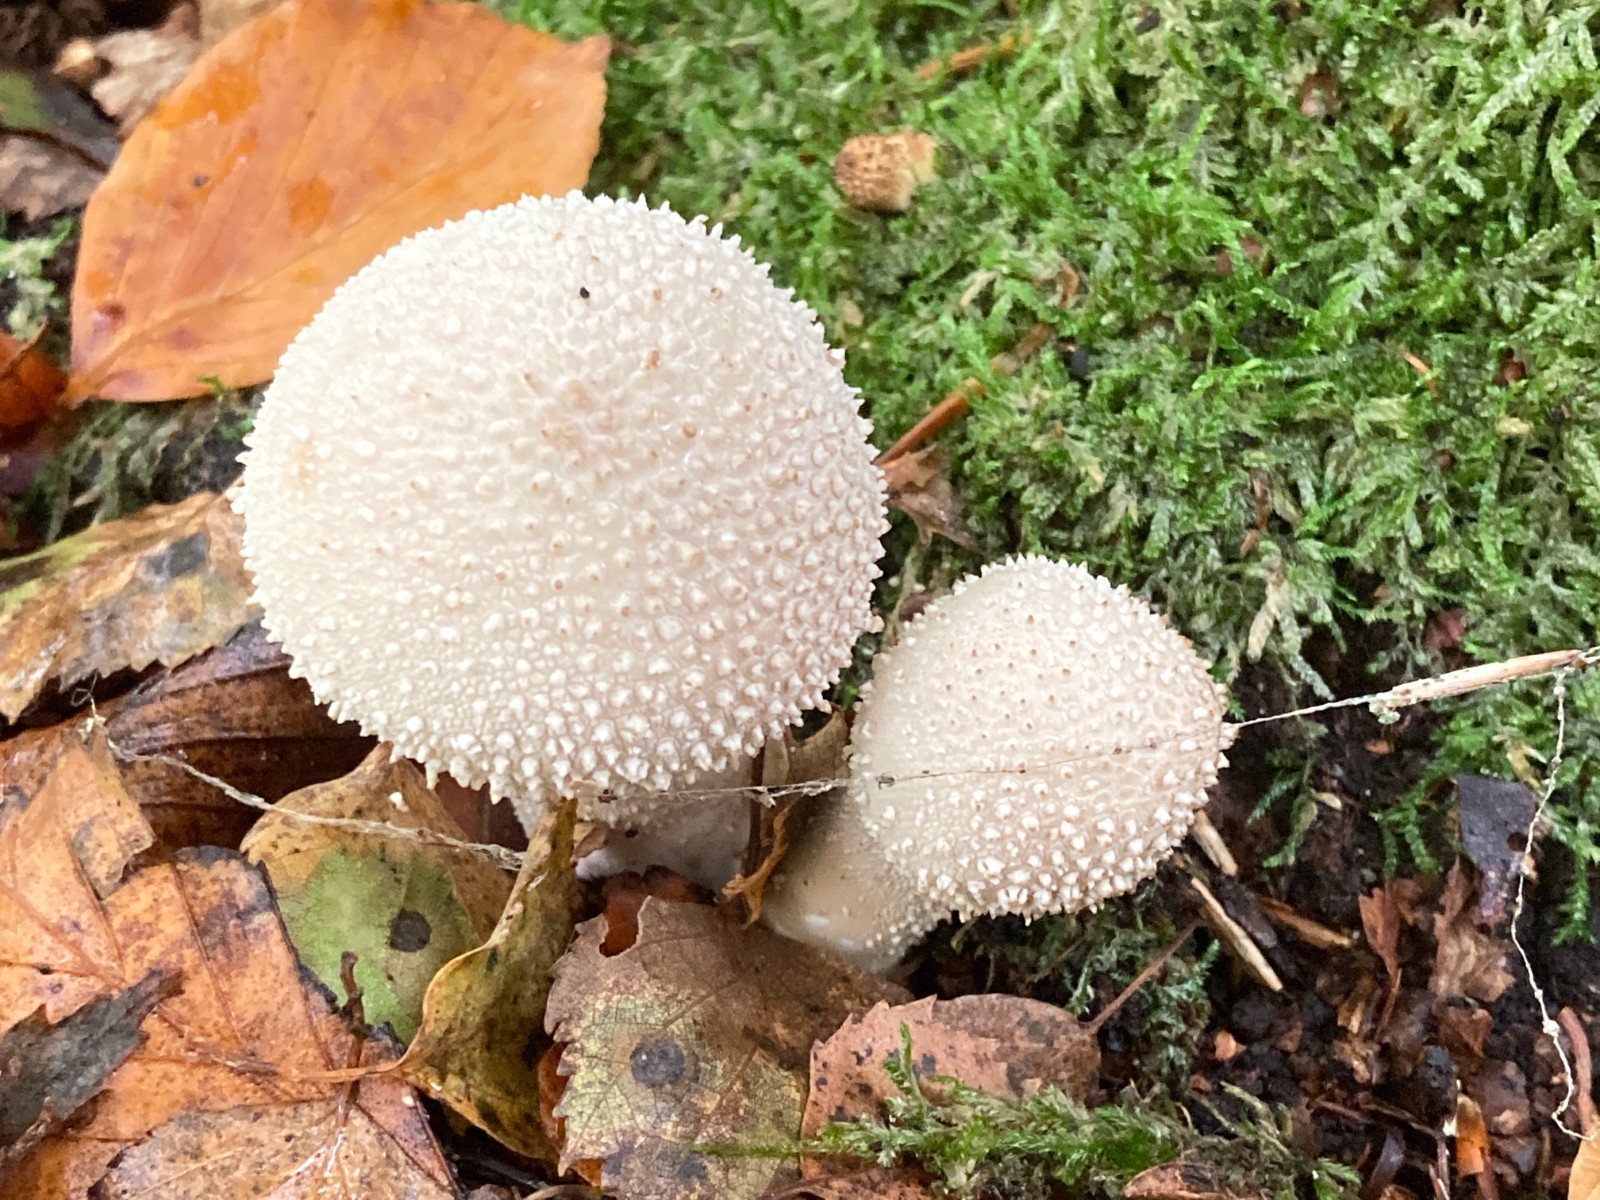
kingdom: Fungi
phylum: Basidiomycota
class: Agaricomycetes
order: Agaricales
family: Lycoperdaceae
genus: Lycoperdon
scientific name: Lycoperdon perlatum
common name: krystal-støvbold
